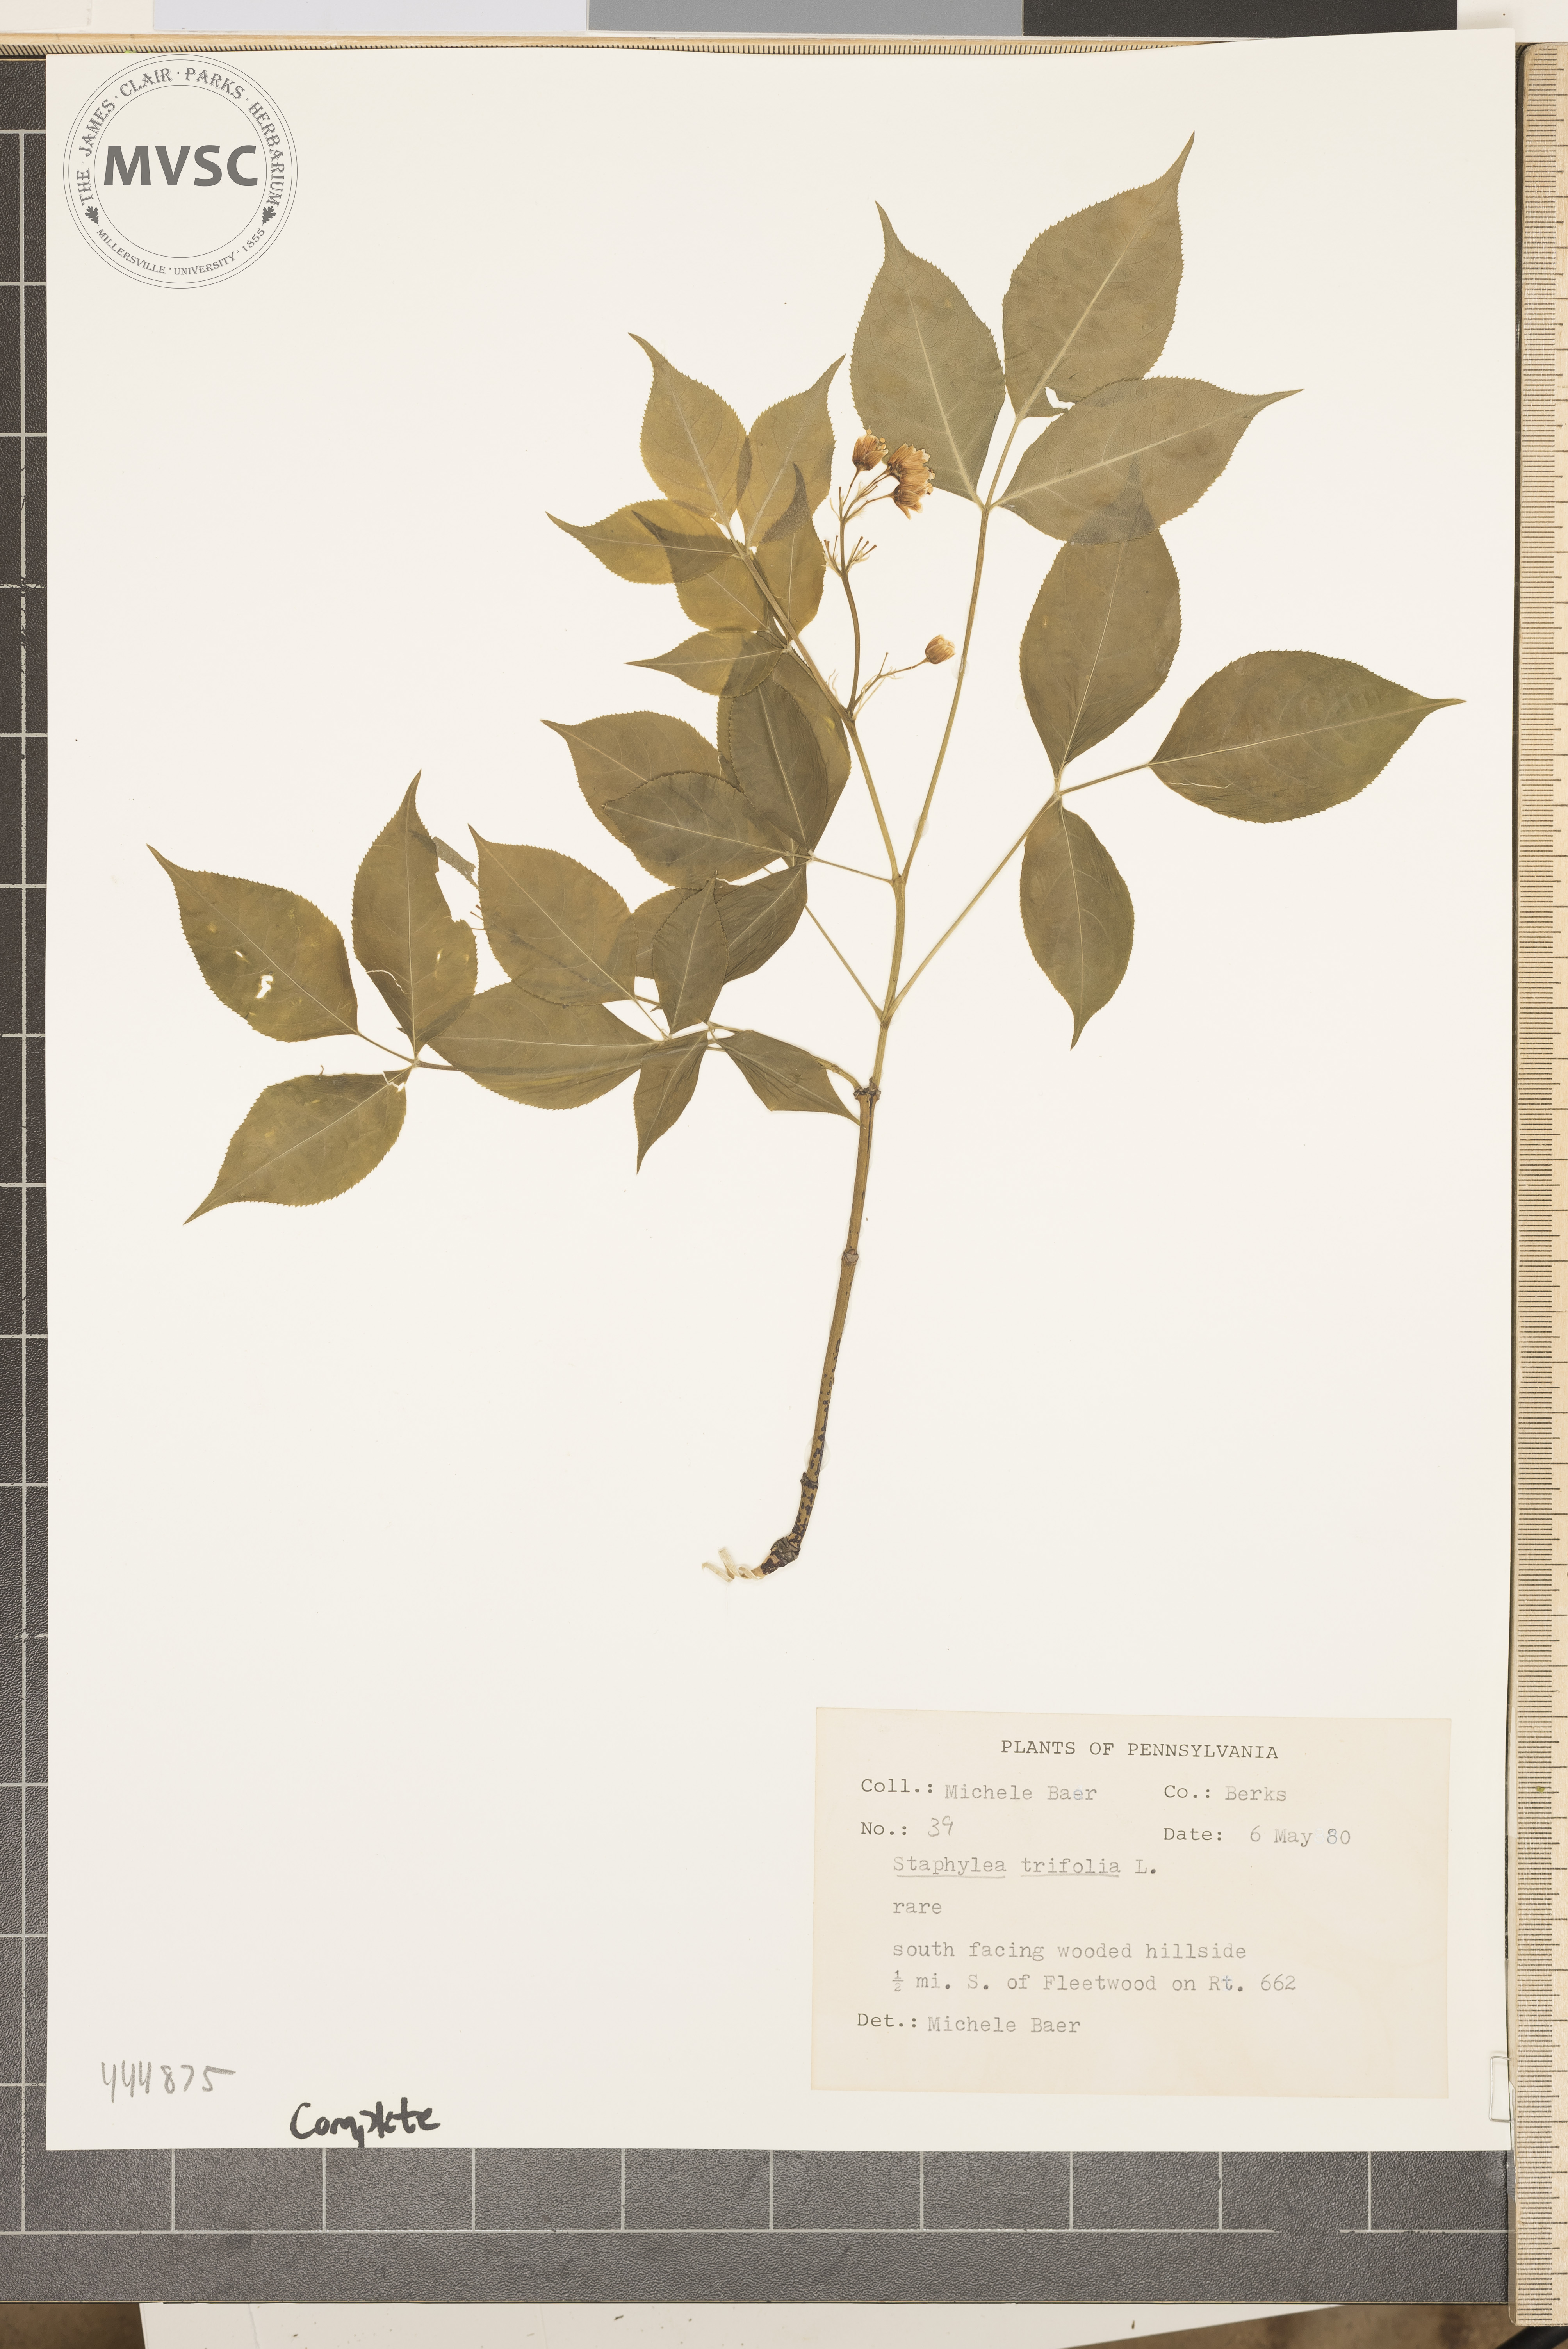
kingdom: Plantae
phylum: Tracheophyta
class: Magnoliopsida
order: Crossosomatales
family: Staphyleaceae
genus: Staphylea
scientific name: Staphylea trifolia
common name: American bladdernut
